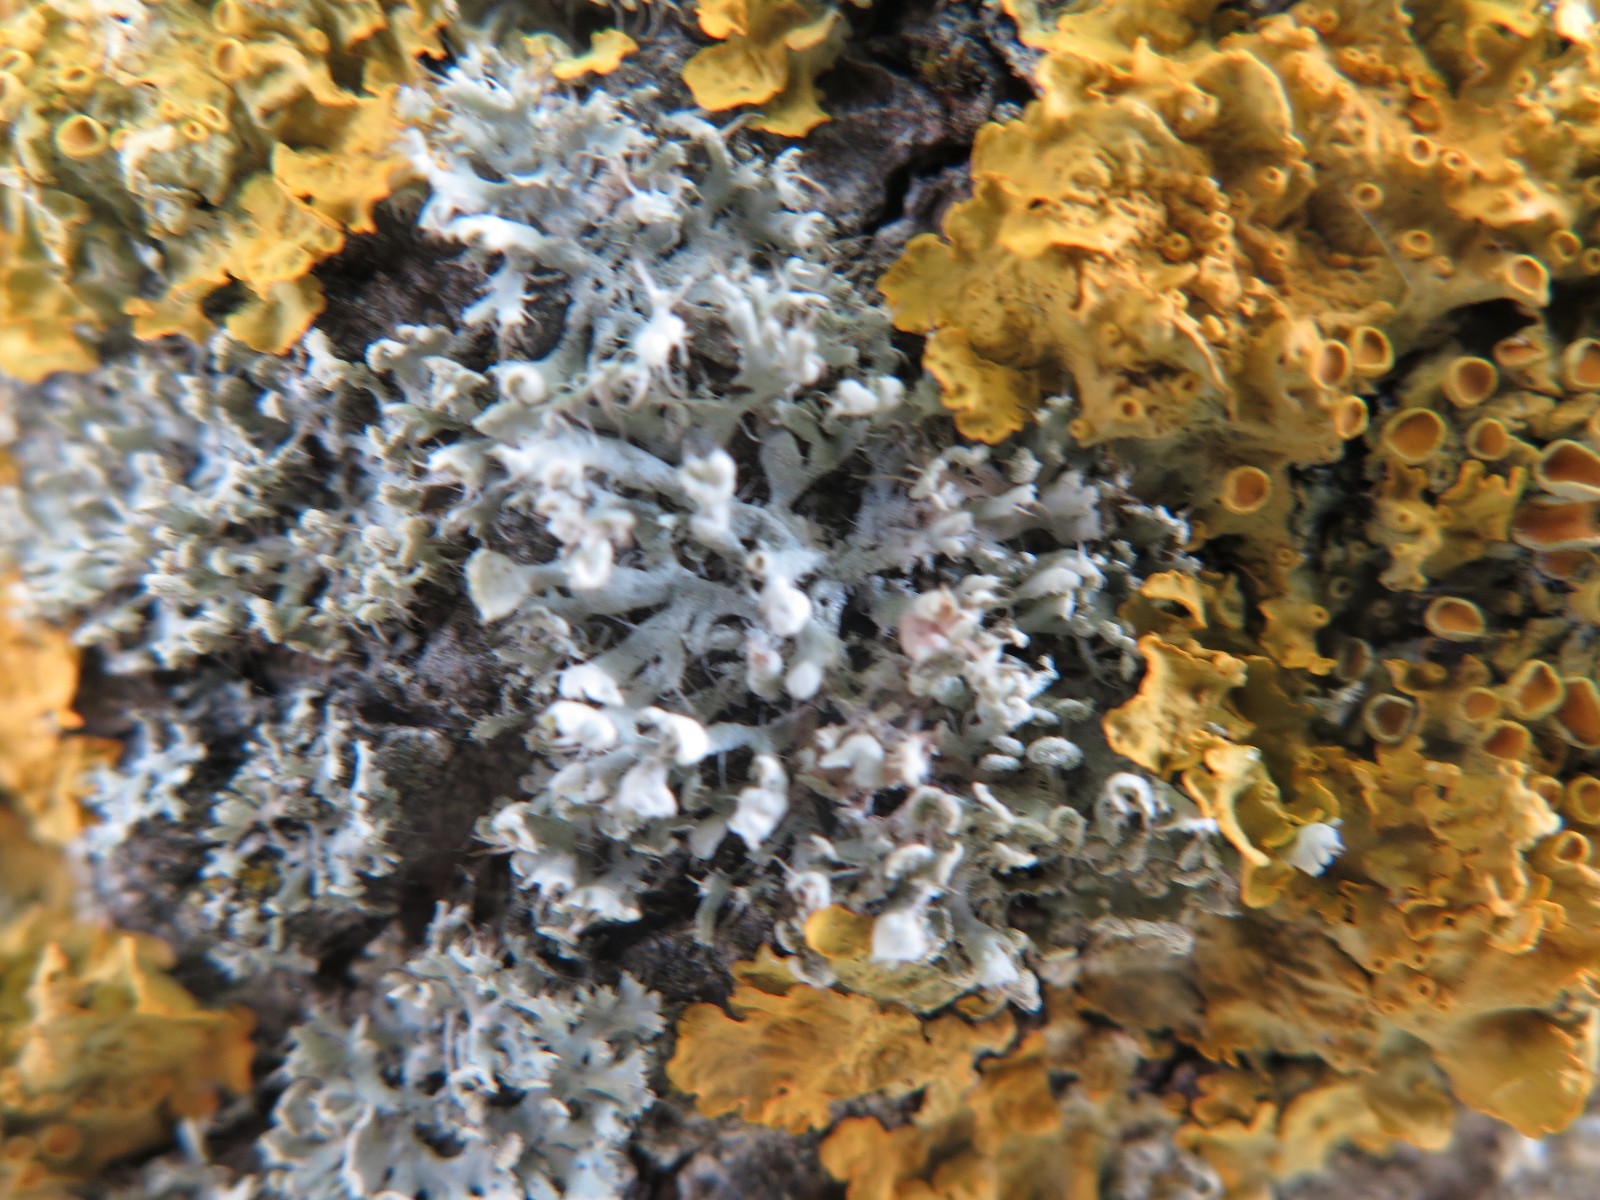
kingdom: Fungi
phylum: Ascomycota
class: Lecanoromycetes
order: Caliciales
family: Physciaceae
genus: Physcia
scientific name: Physcia adscendens
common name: hætte-rosetlav
